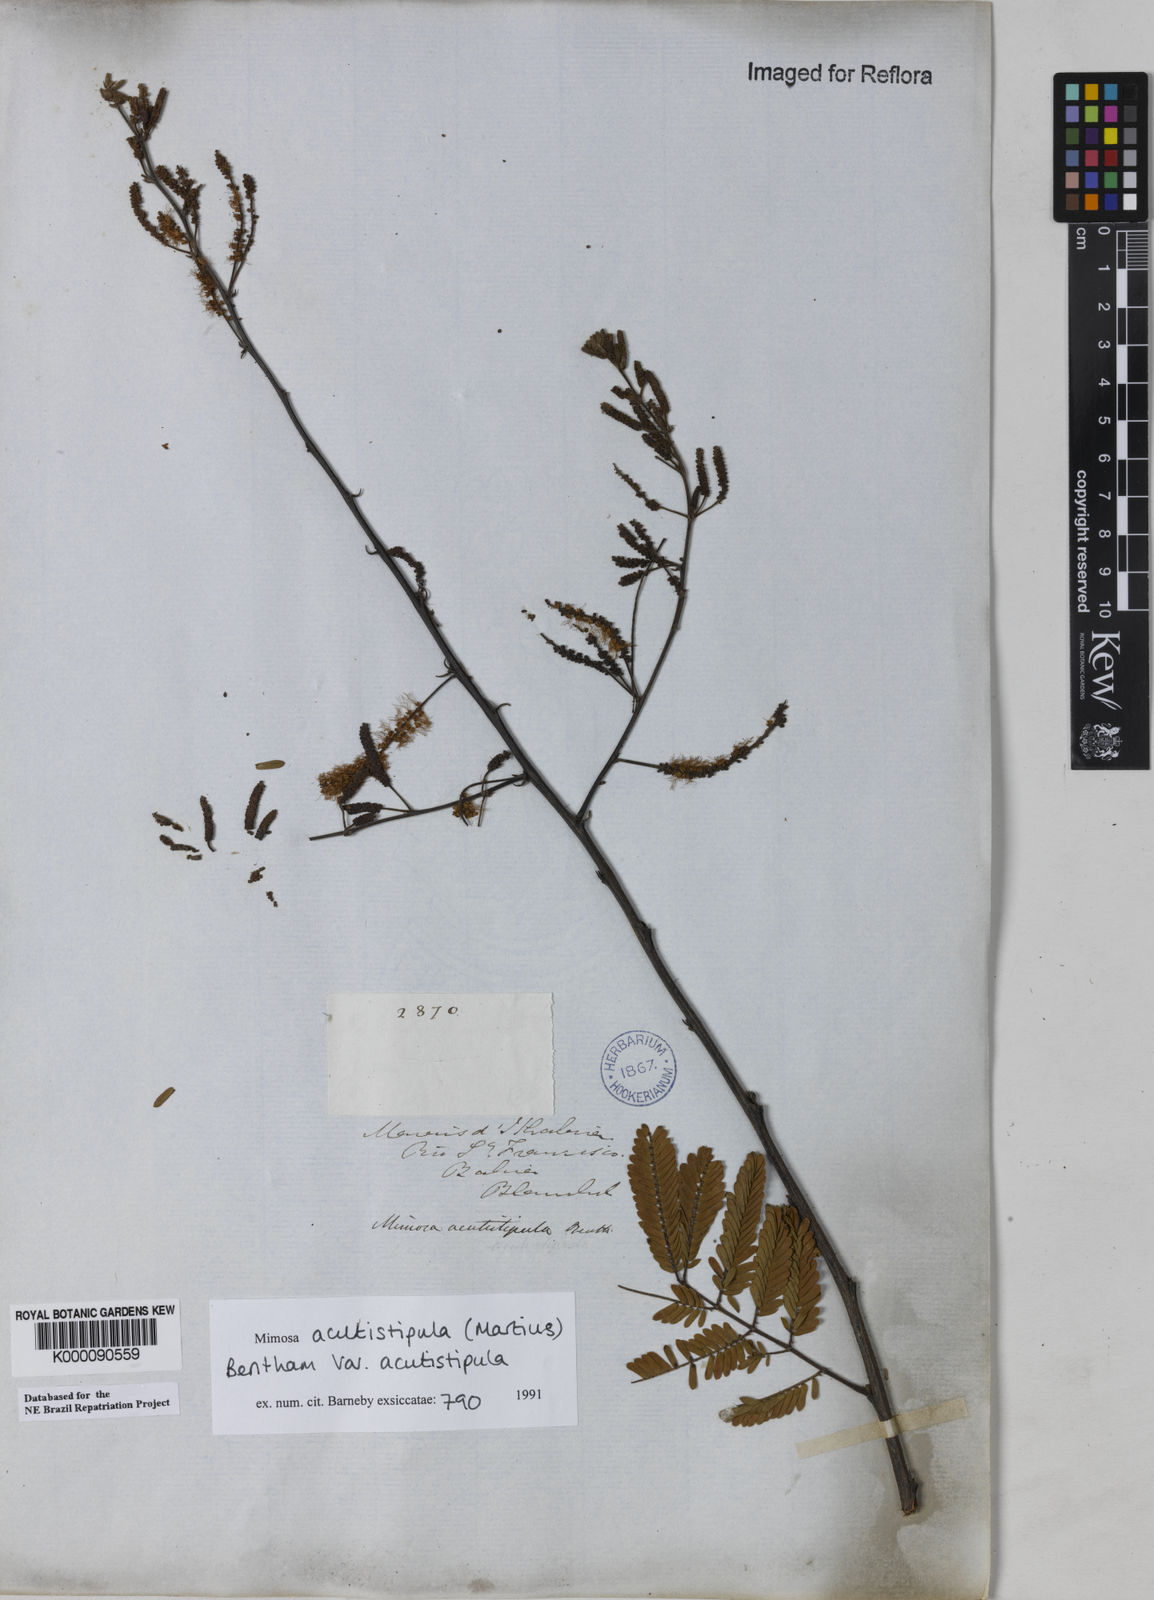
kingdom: Plantae
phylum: Tracheophyta
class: Magnoliopsida
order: Fabales
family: Fabaceae
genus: Mimosa
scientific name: Mimosa acutistipula
